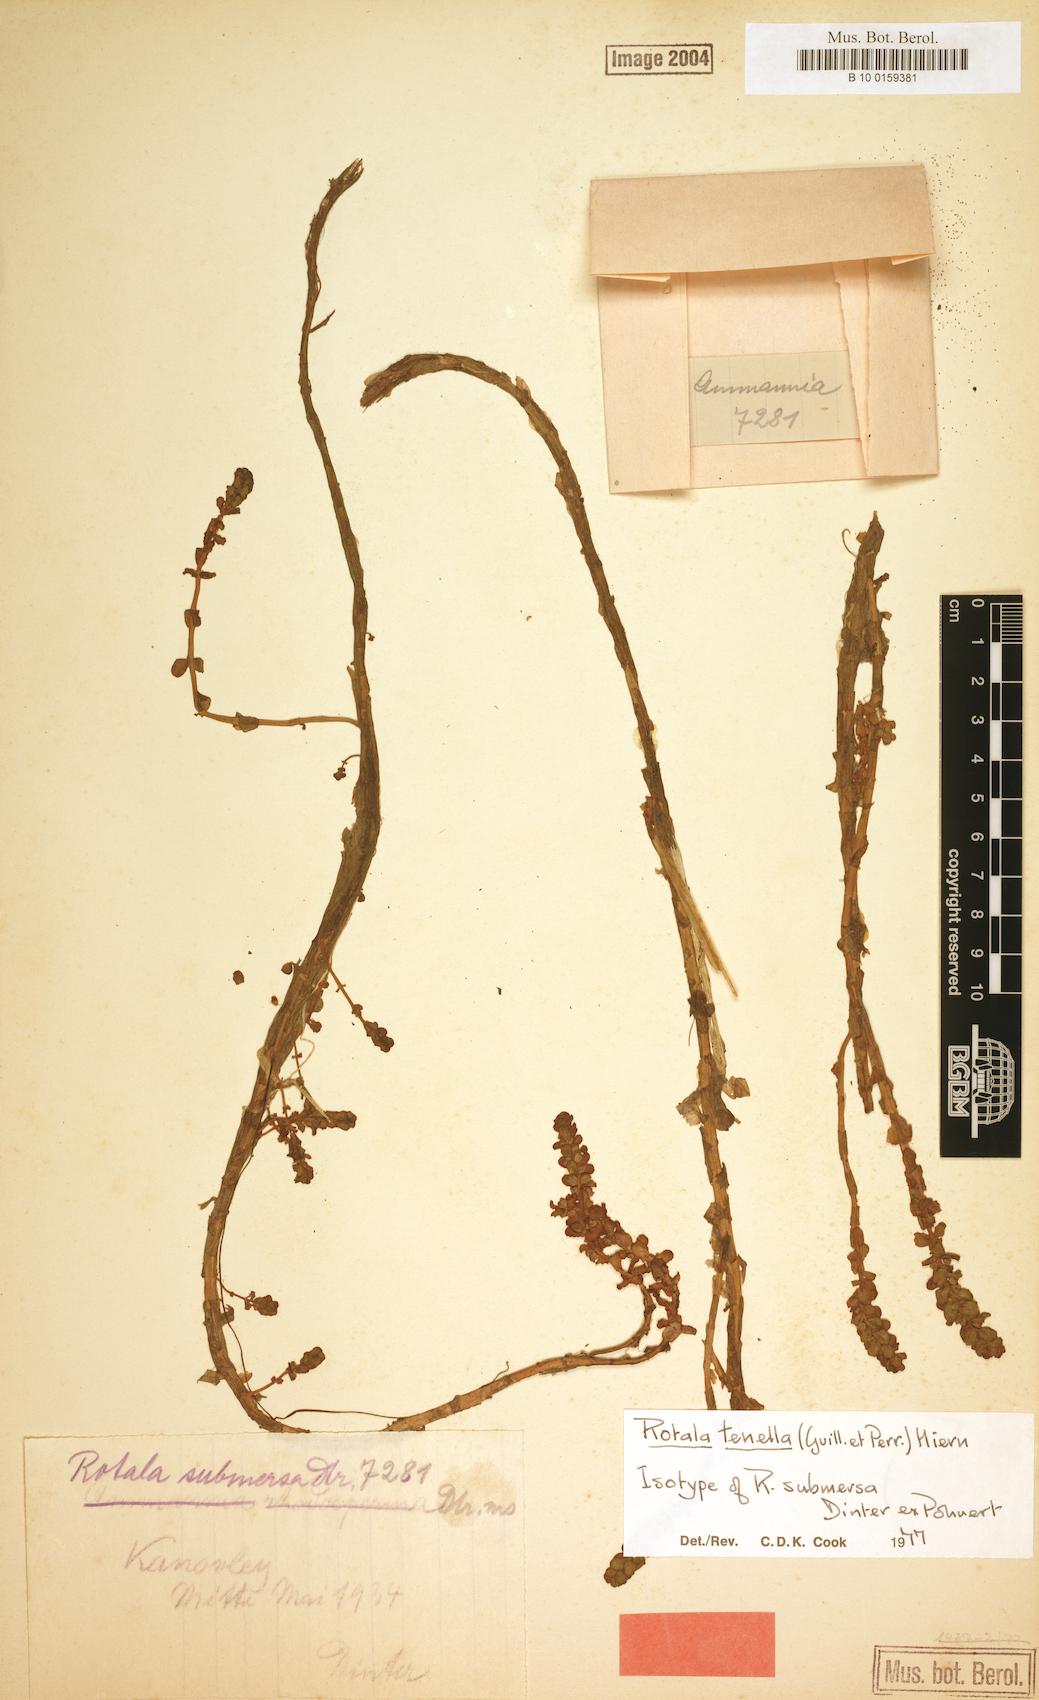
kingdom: Plantae
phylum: Tracheophyta
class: Magnoliopsida
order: Myrtales
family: Lythraceae
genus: Rotala
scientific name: Rotala tenella
